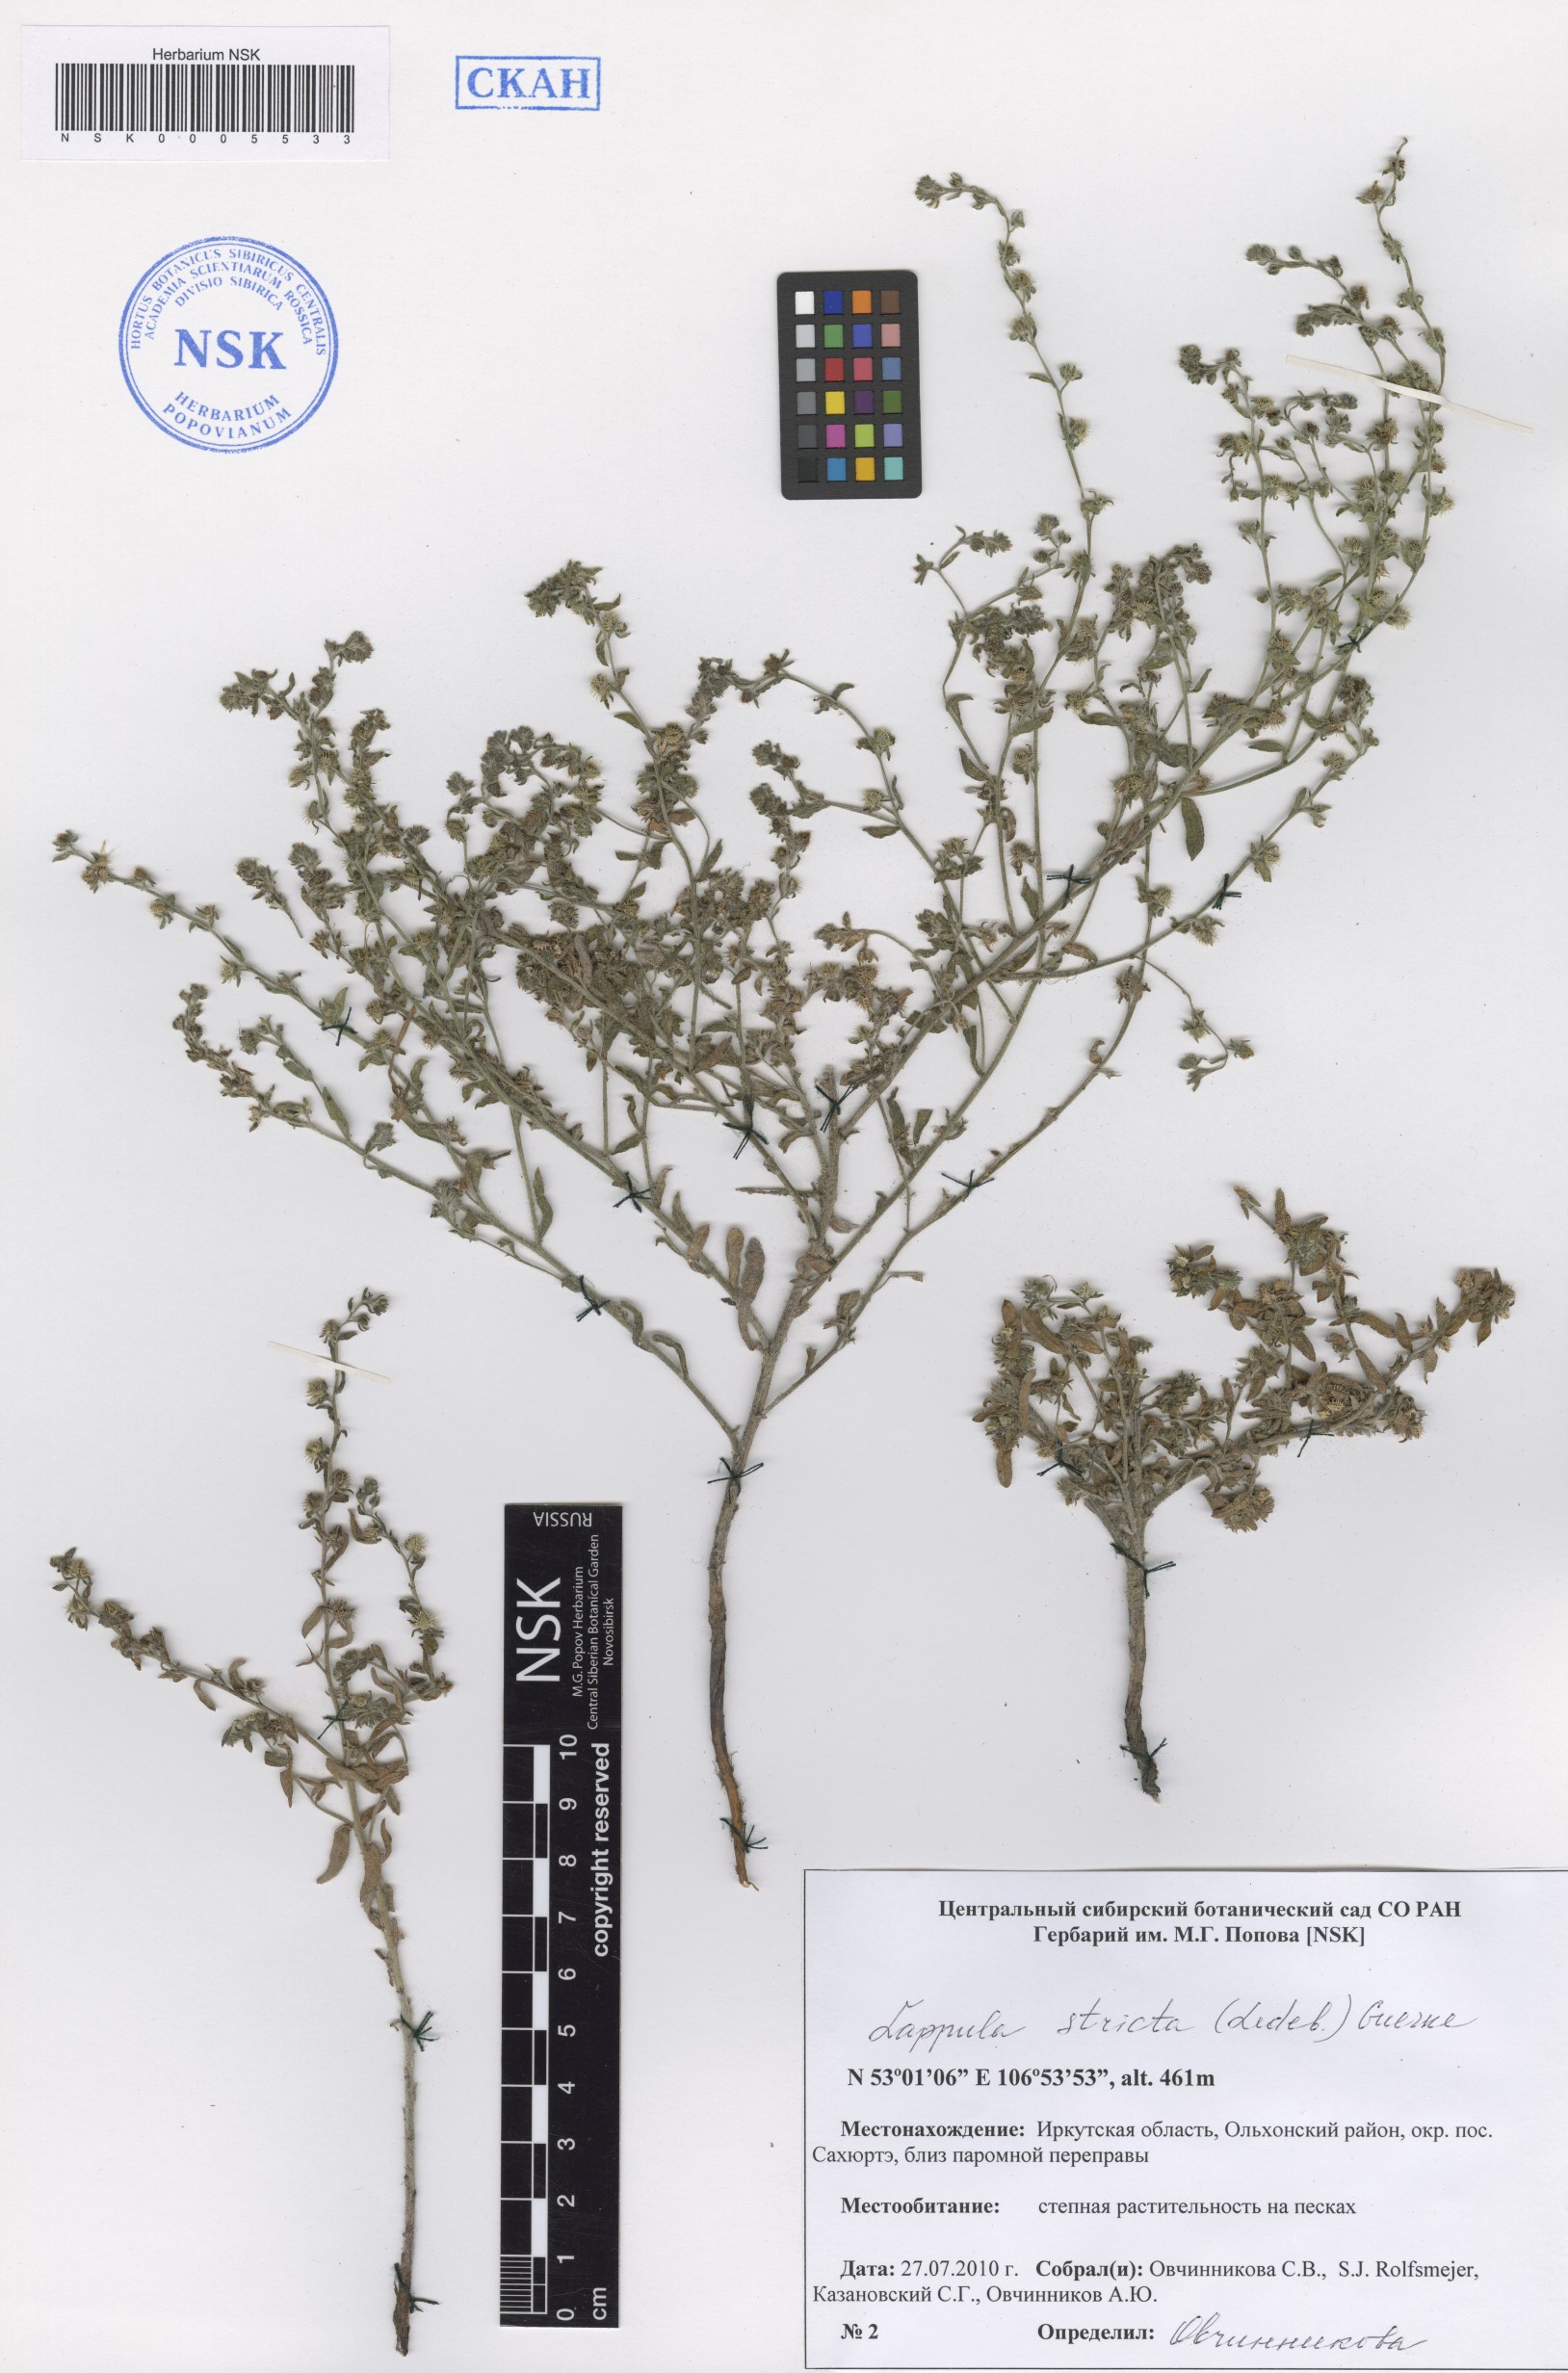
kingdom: Plantae
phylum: Tracheophyta
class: Magnoliopsida
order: Boraginales
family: Boraginaceae
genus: Lappula
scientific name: Lappula stricta
